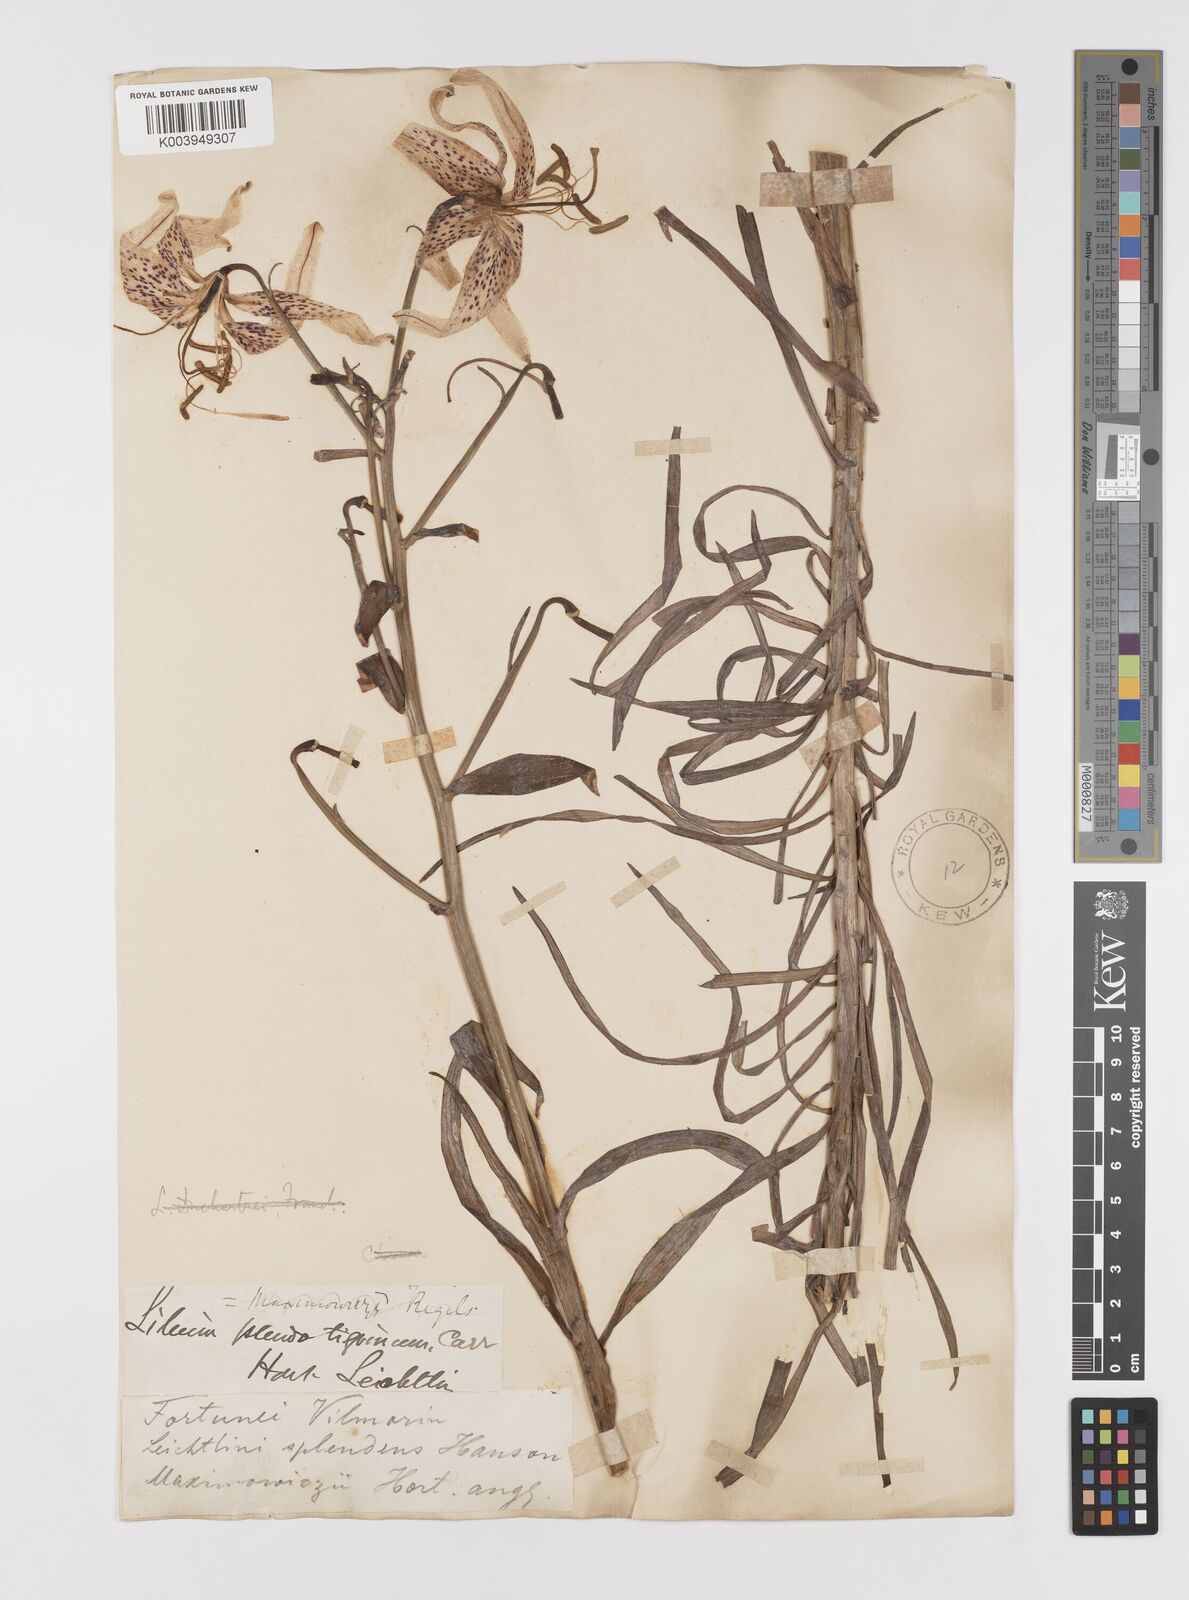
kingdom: Plantae
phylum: Tracheophyta
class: Liliopsida
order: Liliales
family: Liliaceae
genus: Lilium
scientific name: Lilium leichtlinii
